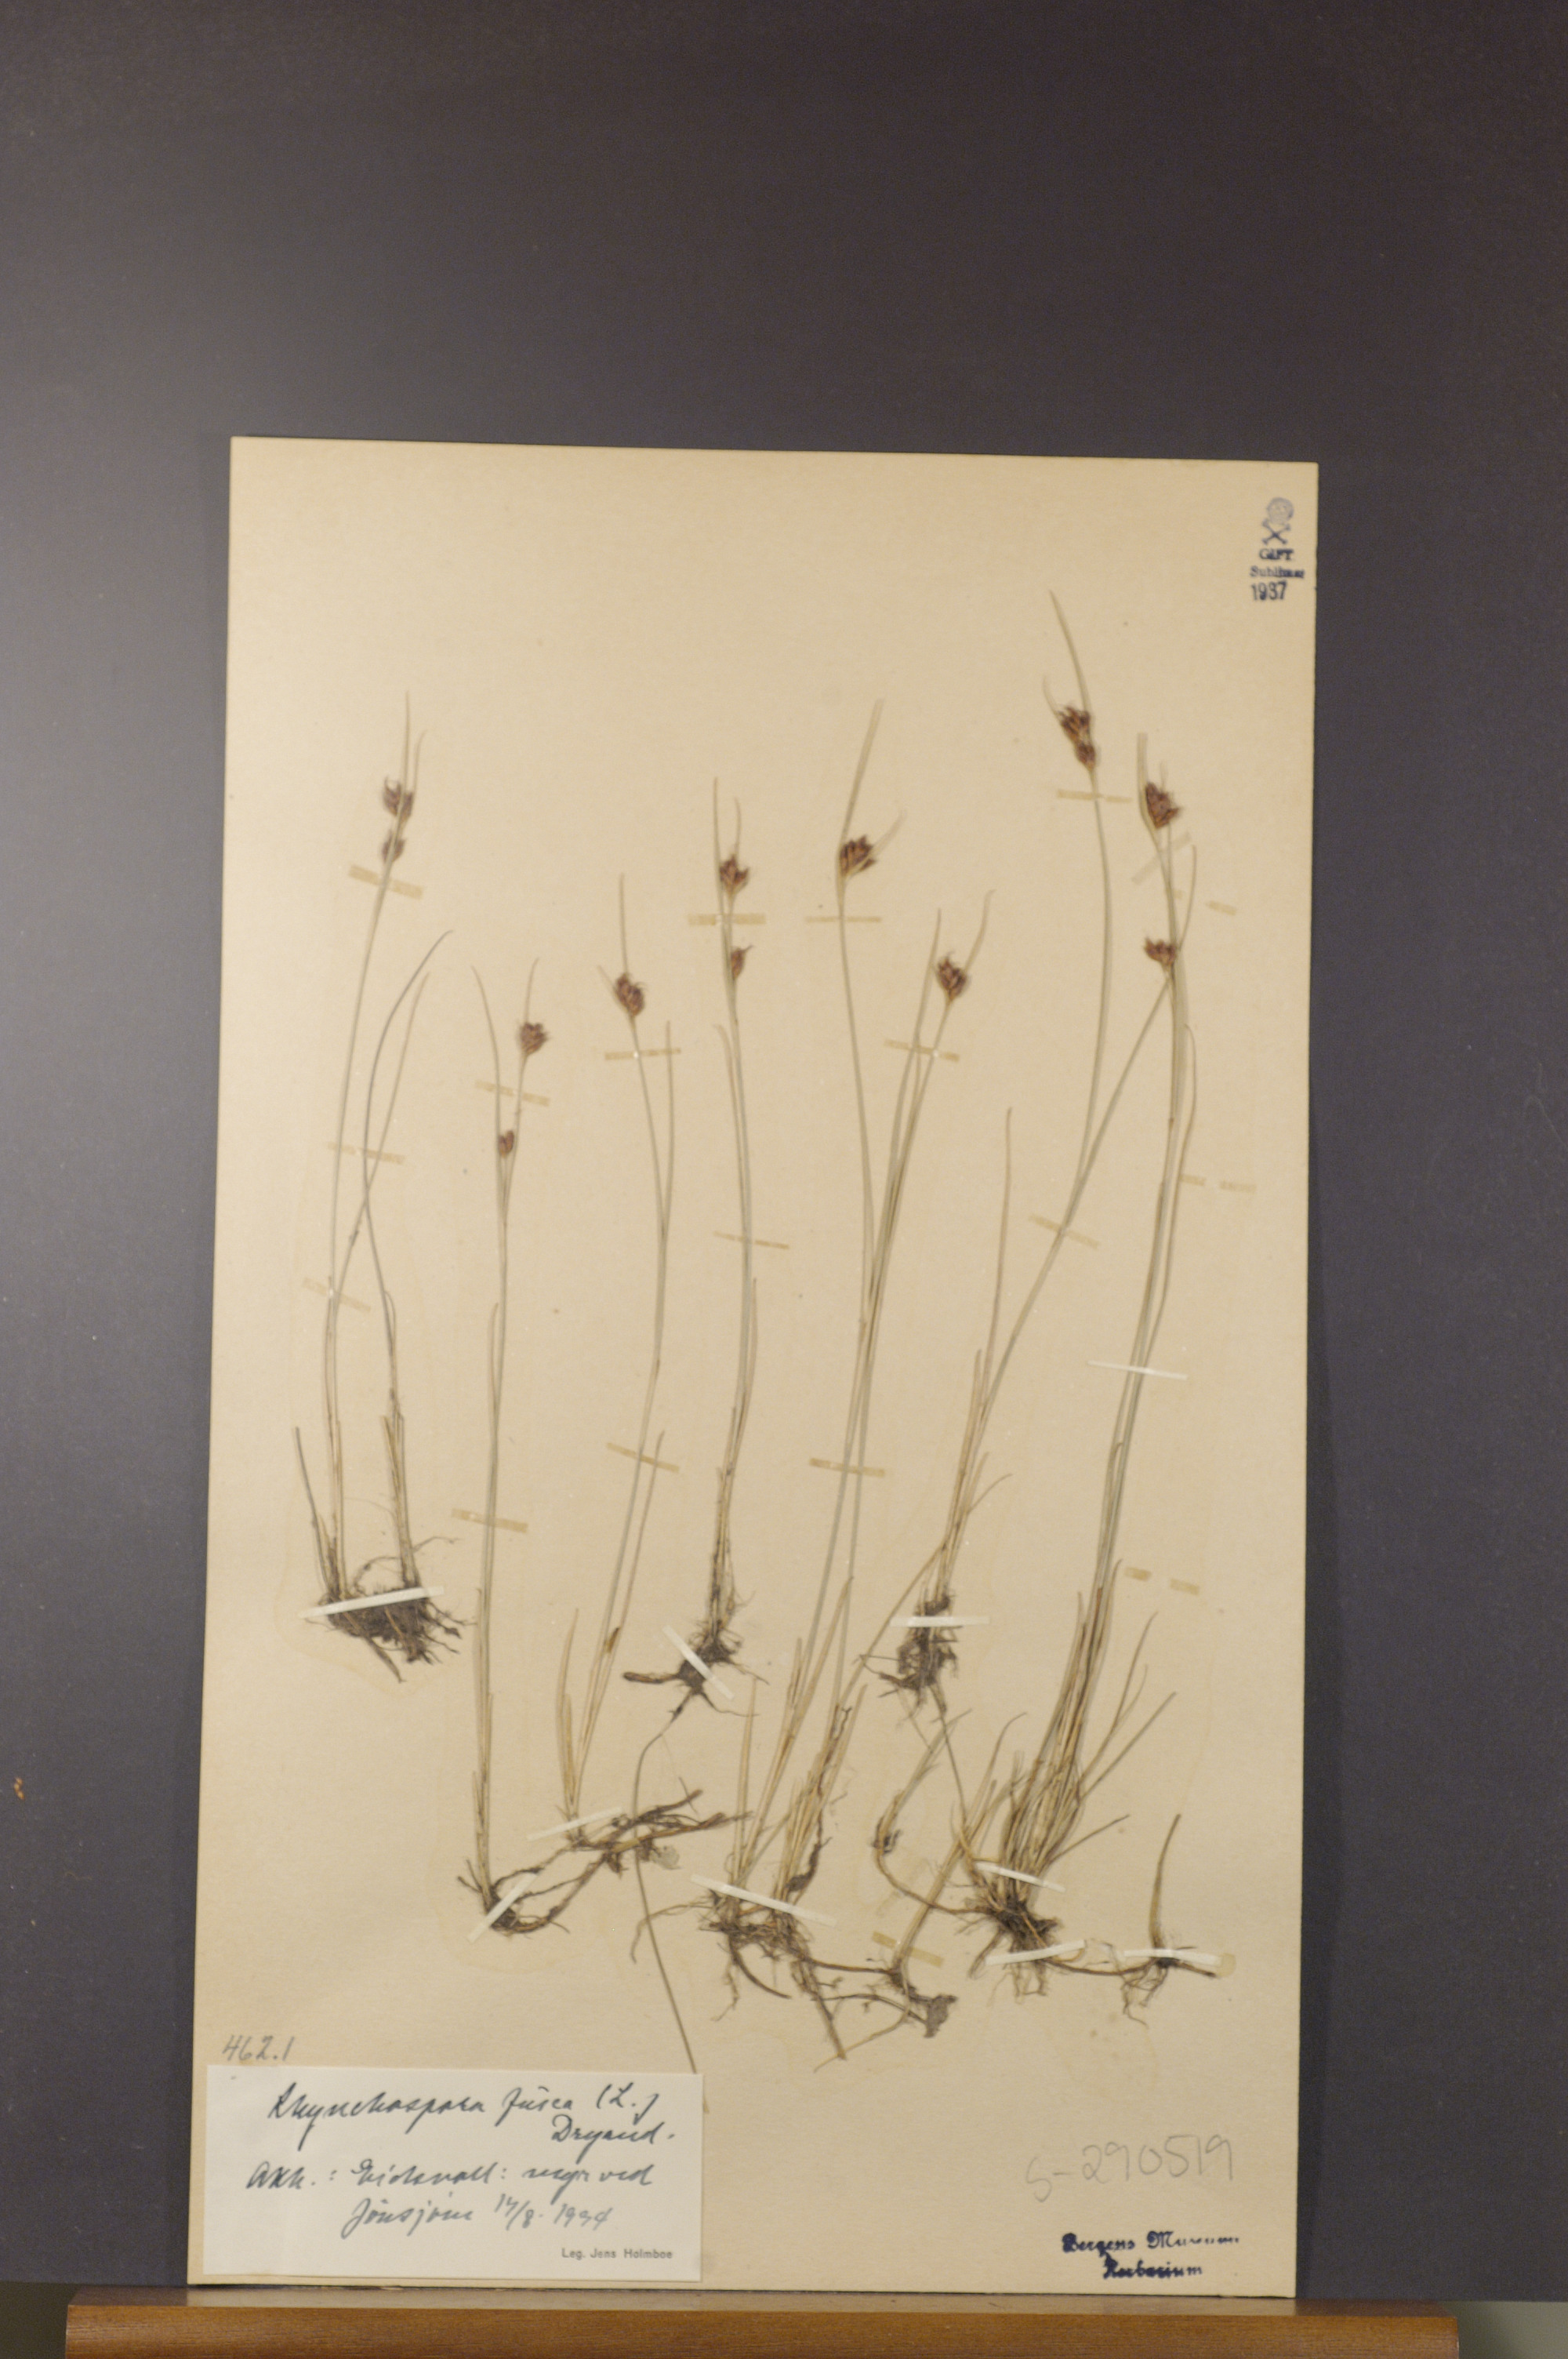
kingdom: Plantae
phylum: Tracheophyta
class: Liliopsida
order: Poales
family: Cyperaceae
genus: Rhynchospora
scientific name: Rhynchospora fusca
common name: Brown beak-sedge
